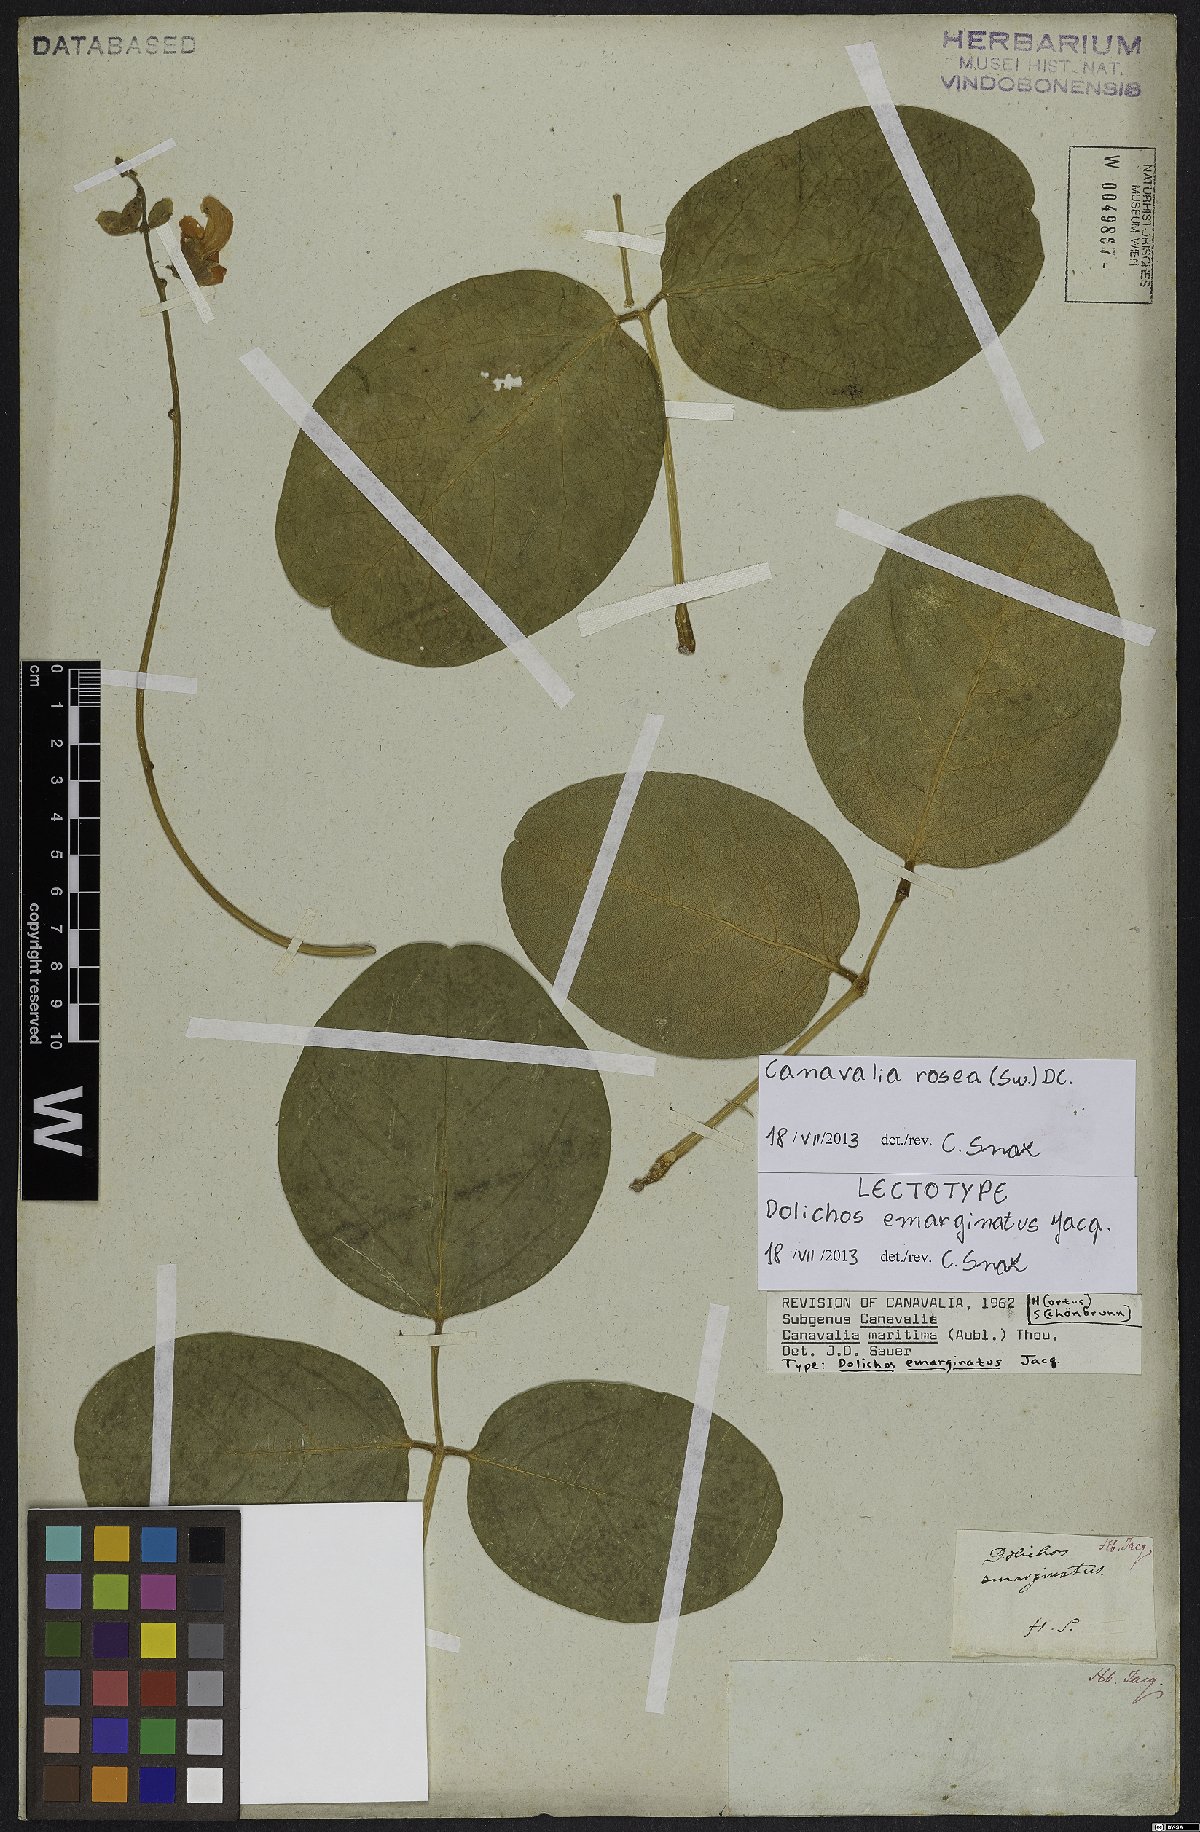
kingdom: Plantae
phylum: Tracheophyta
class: Magnoliopsida
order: Fabales
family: Fabaceae
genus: Canavalia
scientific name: Canavalia rosea
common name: Beach-bean
